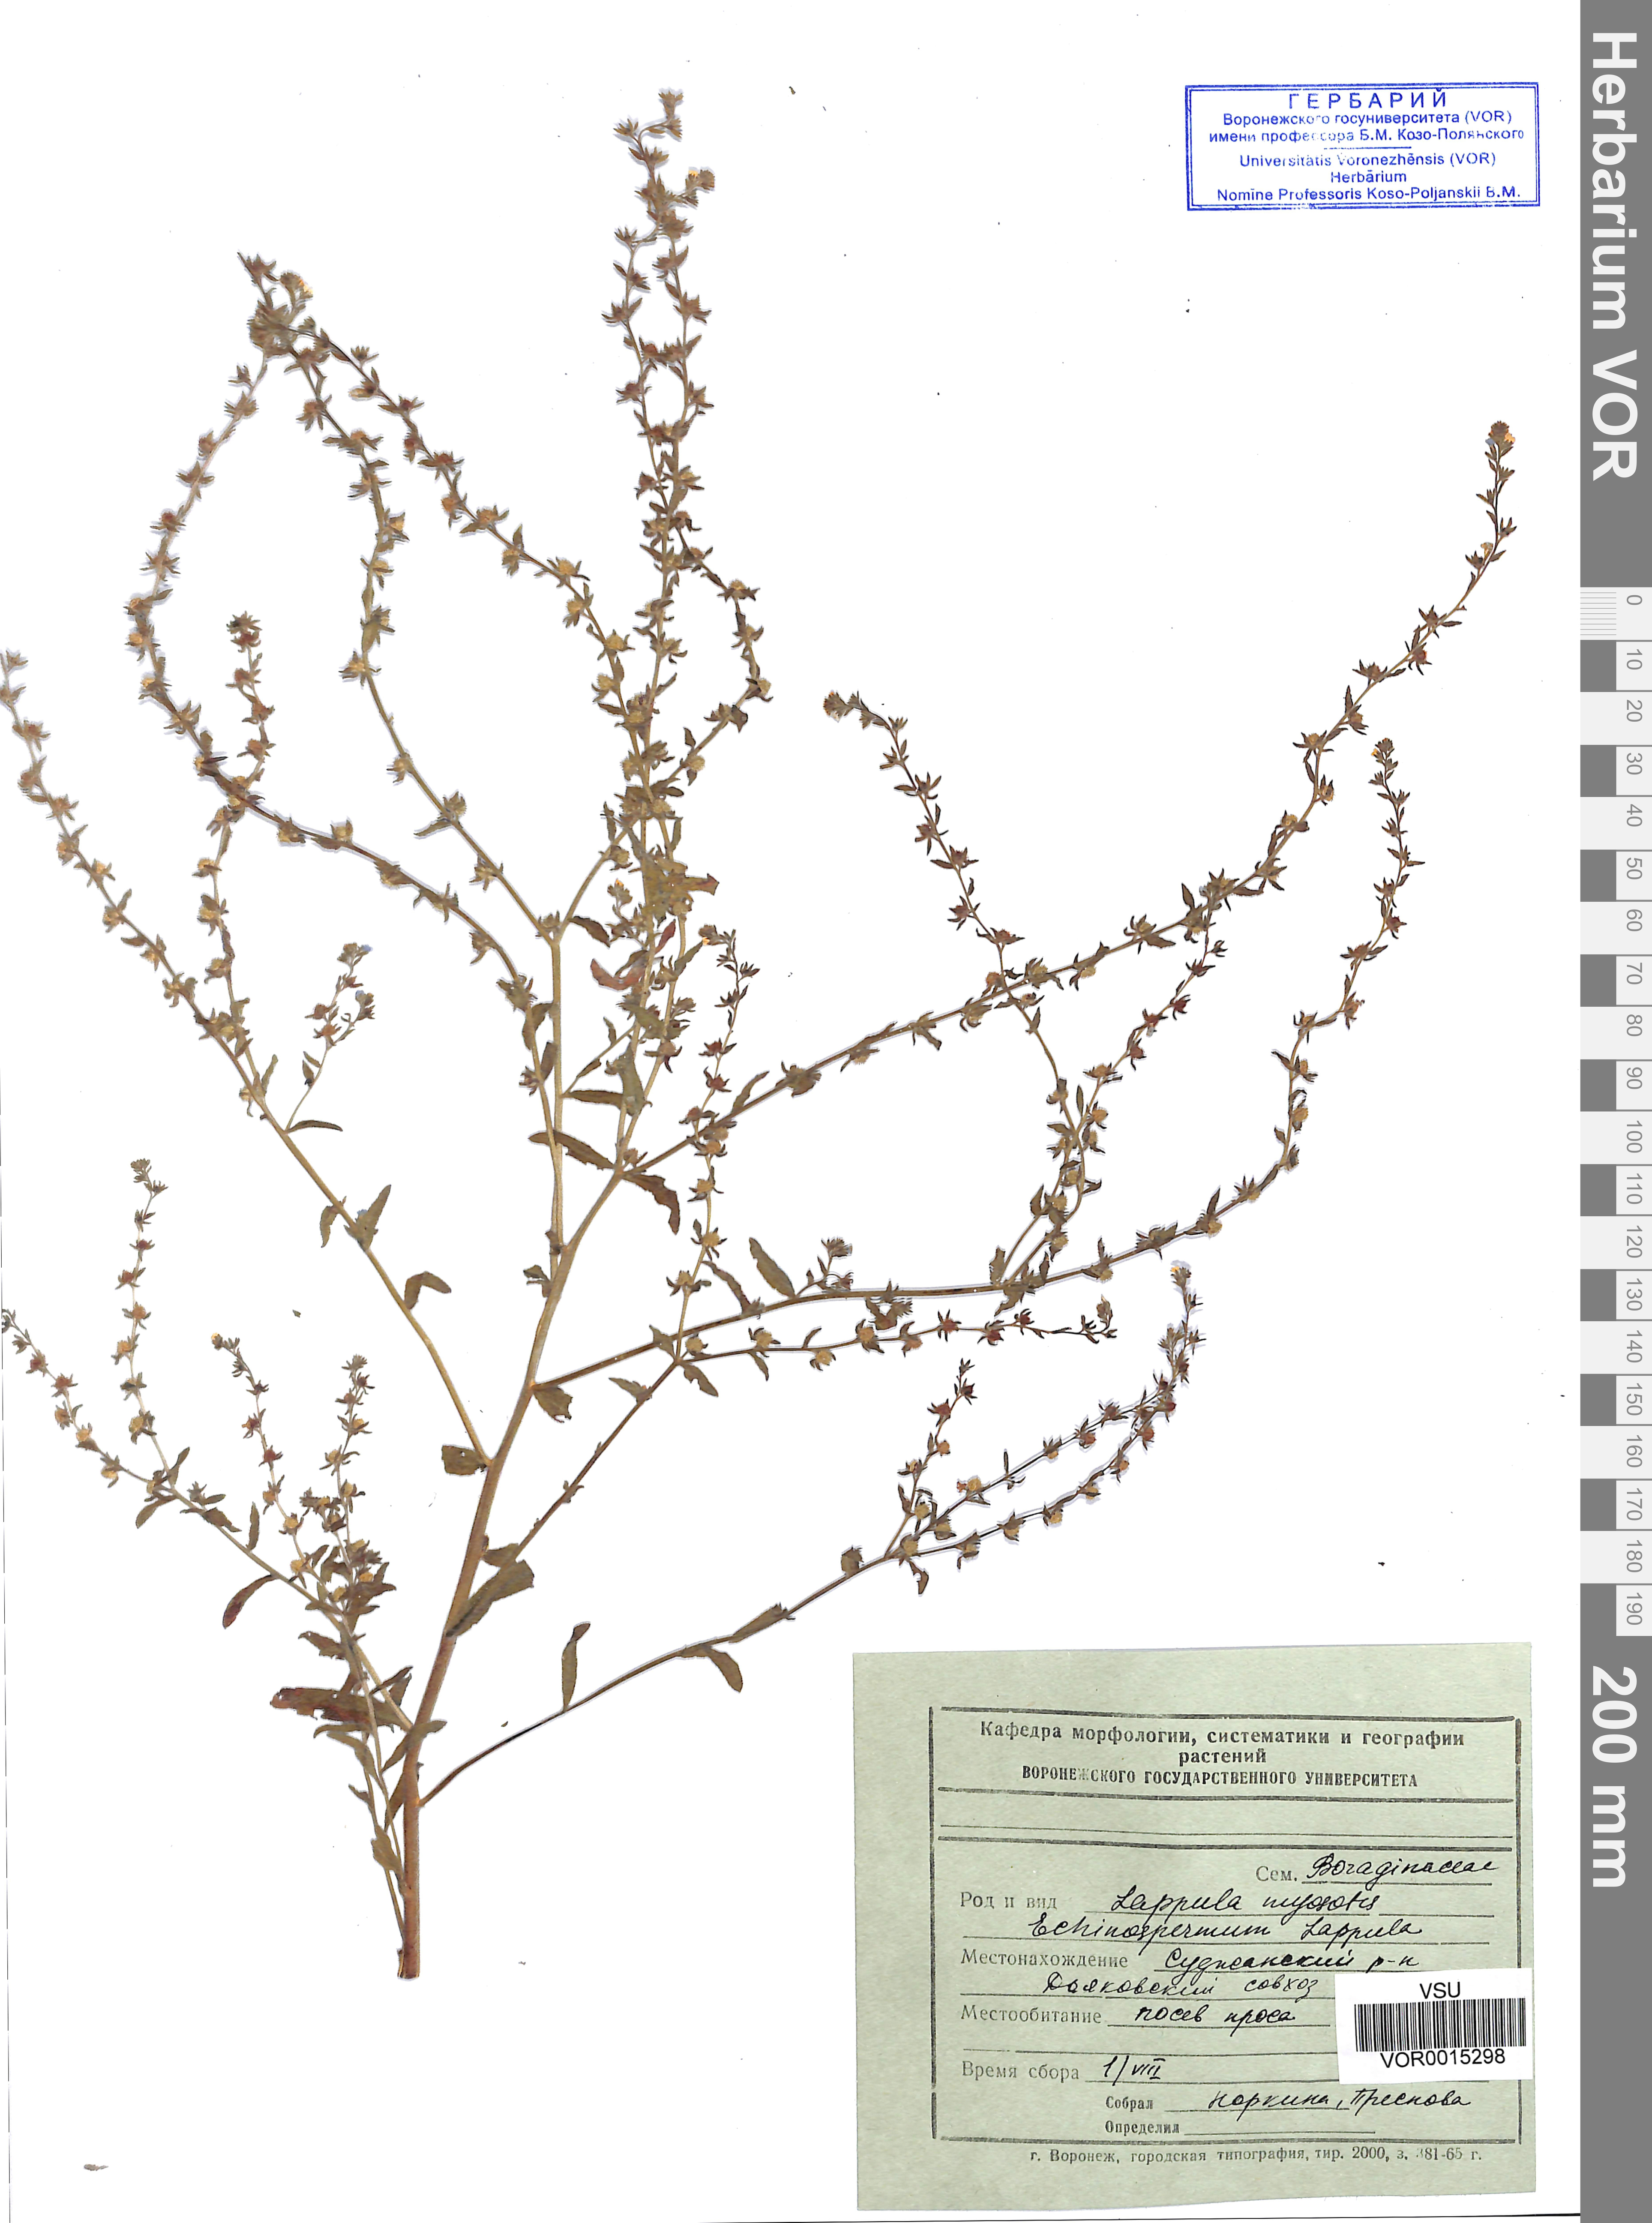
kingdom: Plantae
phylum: Tracheophyta
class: Magnoliopsida
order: Boraginales
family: Boraginaceae
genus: Lappula
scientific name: Lappula squarrosa
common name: European stickseed
